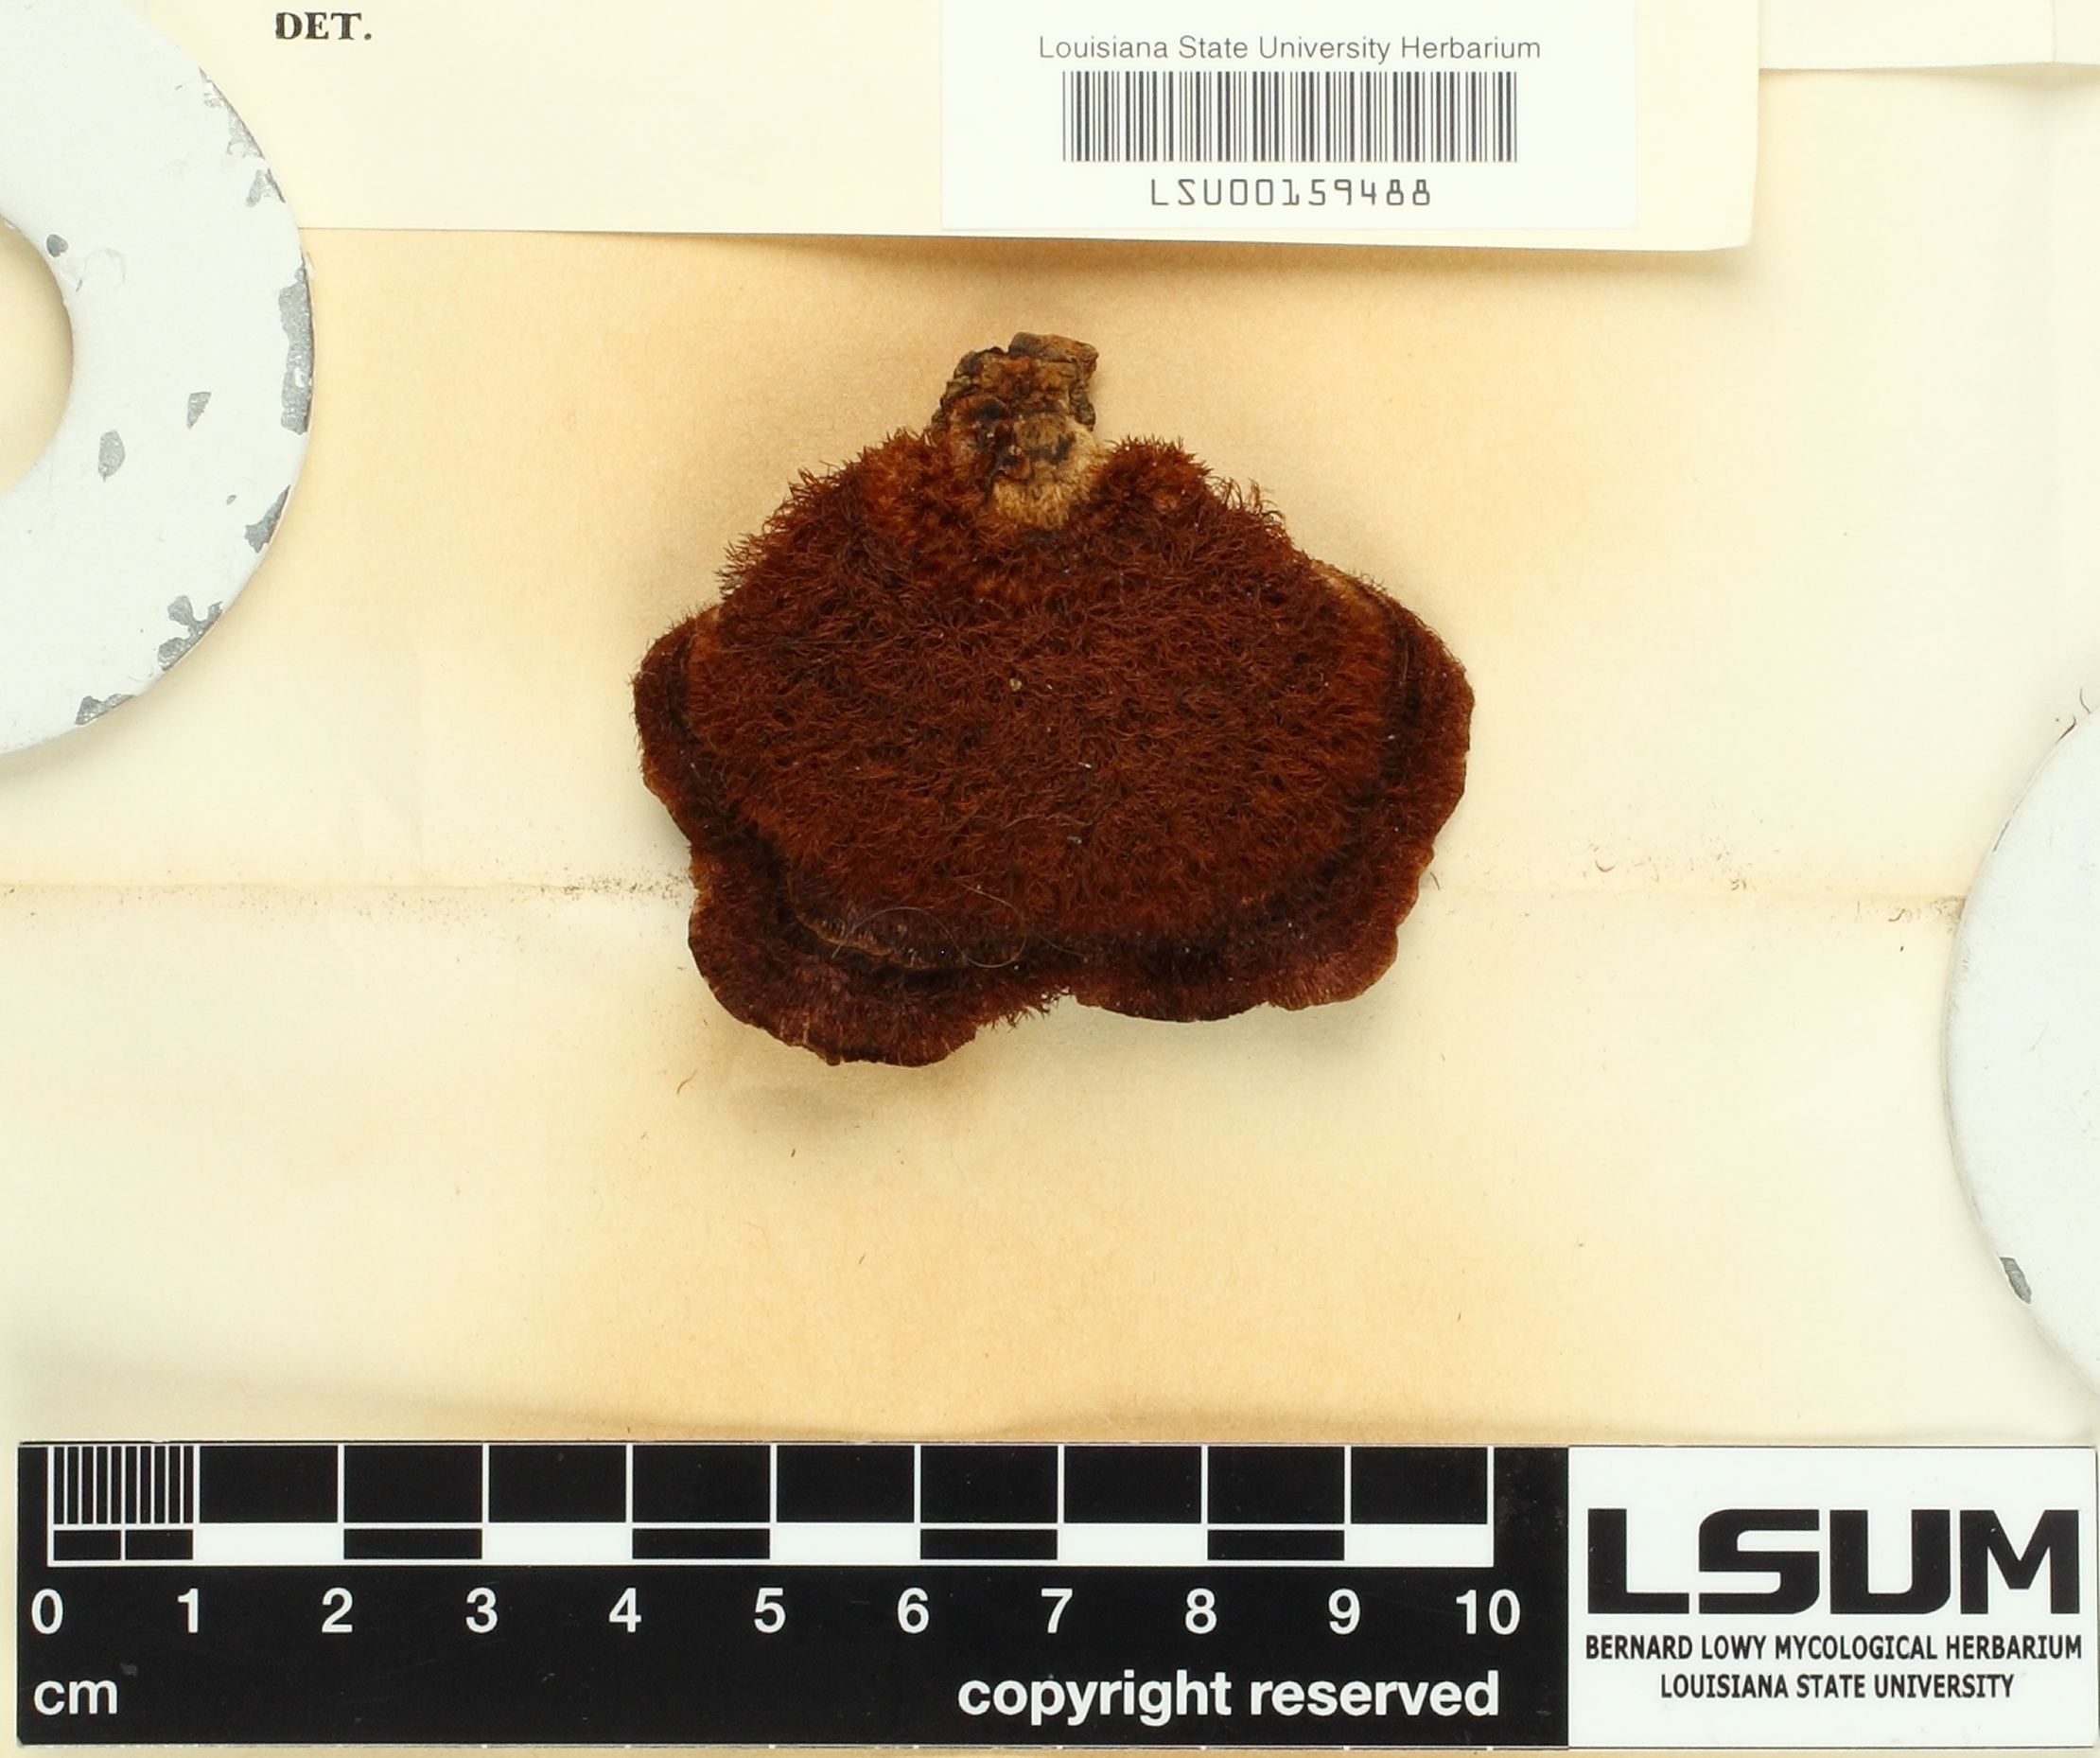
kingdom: Fungi
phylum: Basidiomycota
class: Agaricomycetes
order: Hymenochaetales
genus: Trichaptum
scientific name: Trichaptum trichomallum
